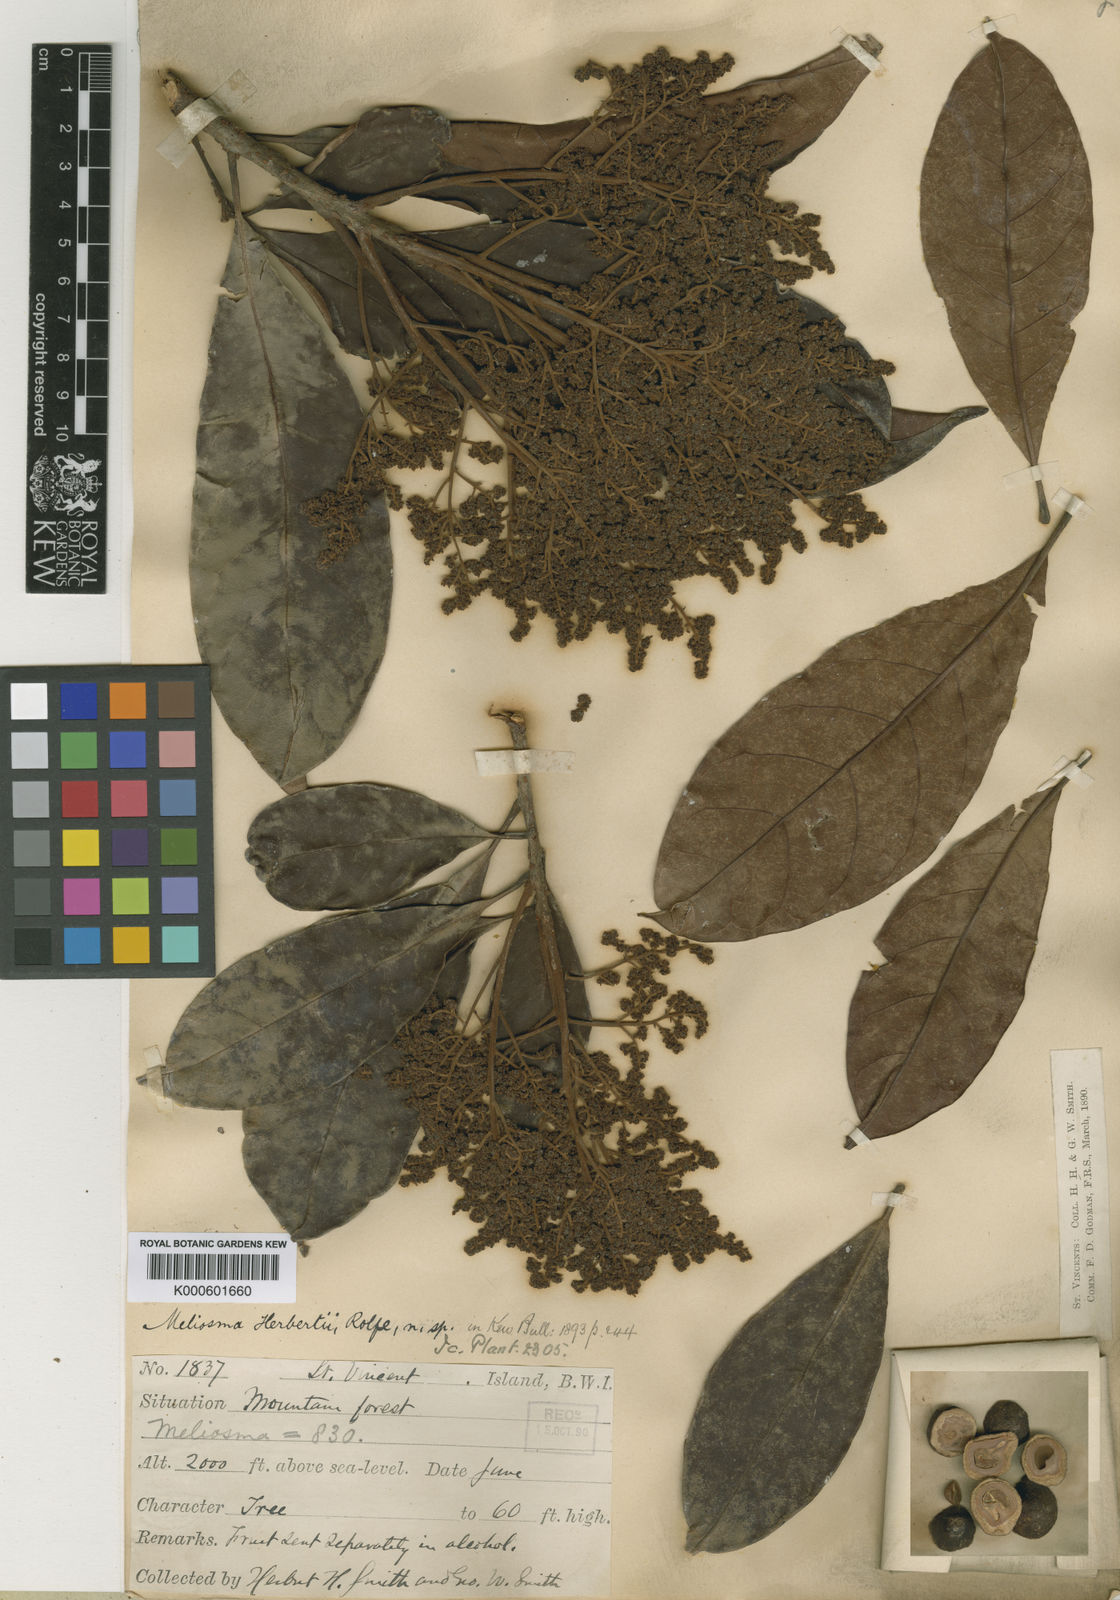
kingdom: Plantae
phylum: Tracheophyta
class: Magnoliopsida
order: Proteales
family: Sabiaceae
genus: Meliosma
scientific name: Meliosma herbertii
